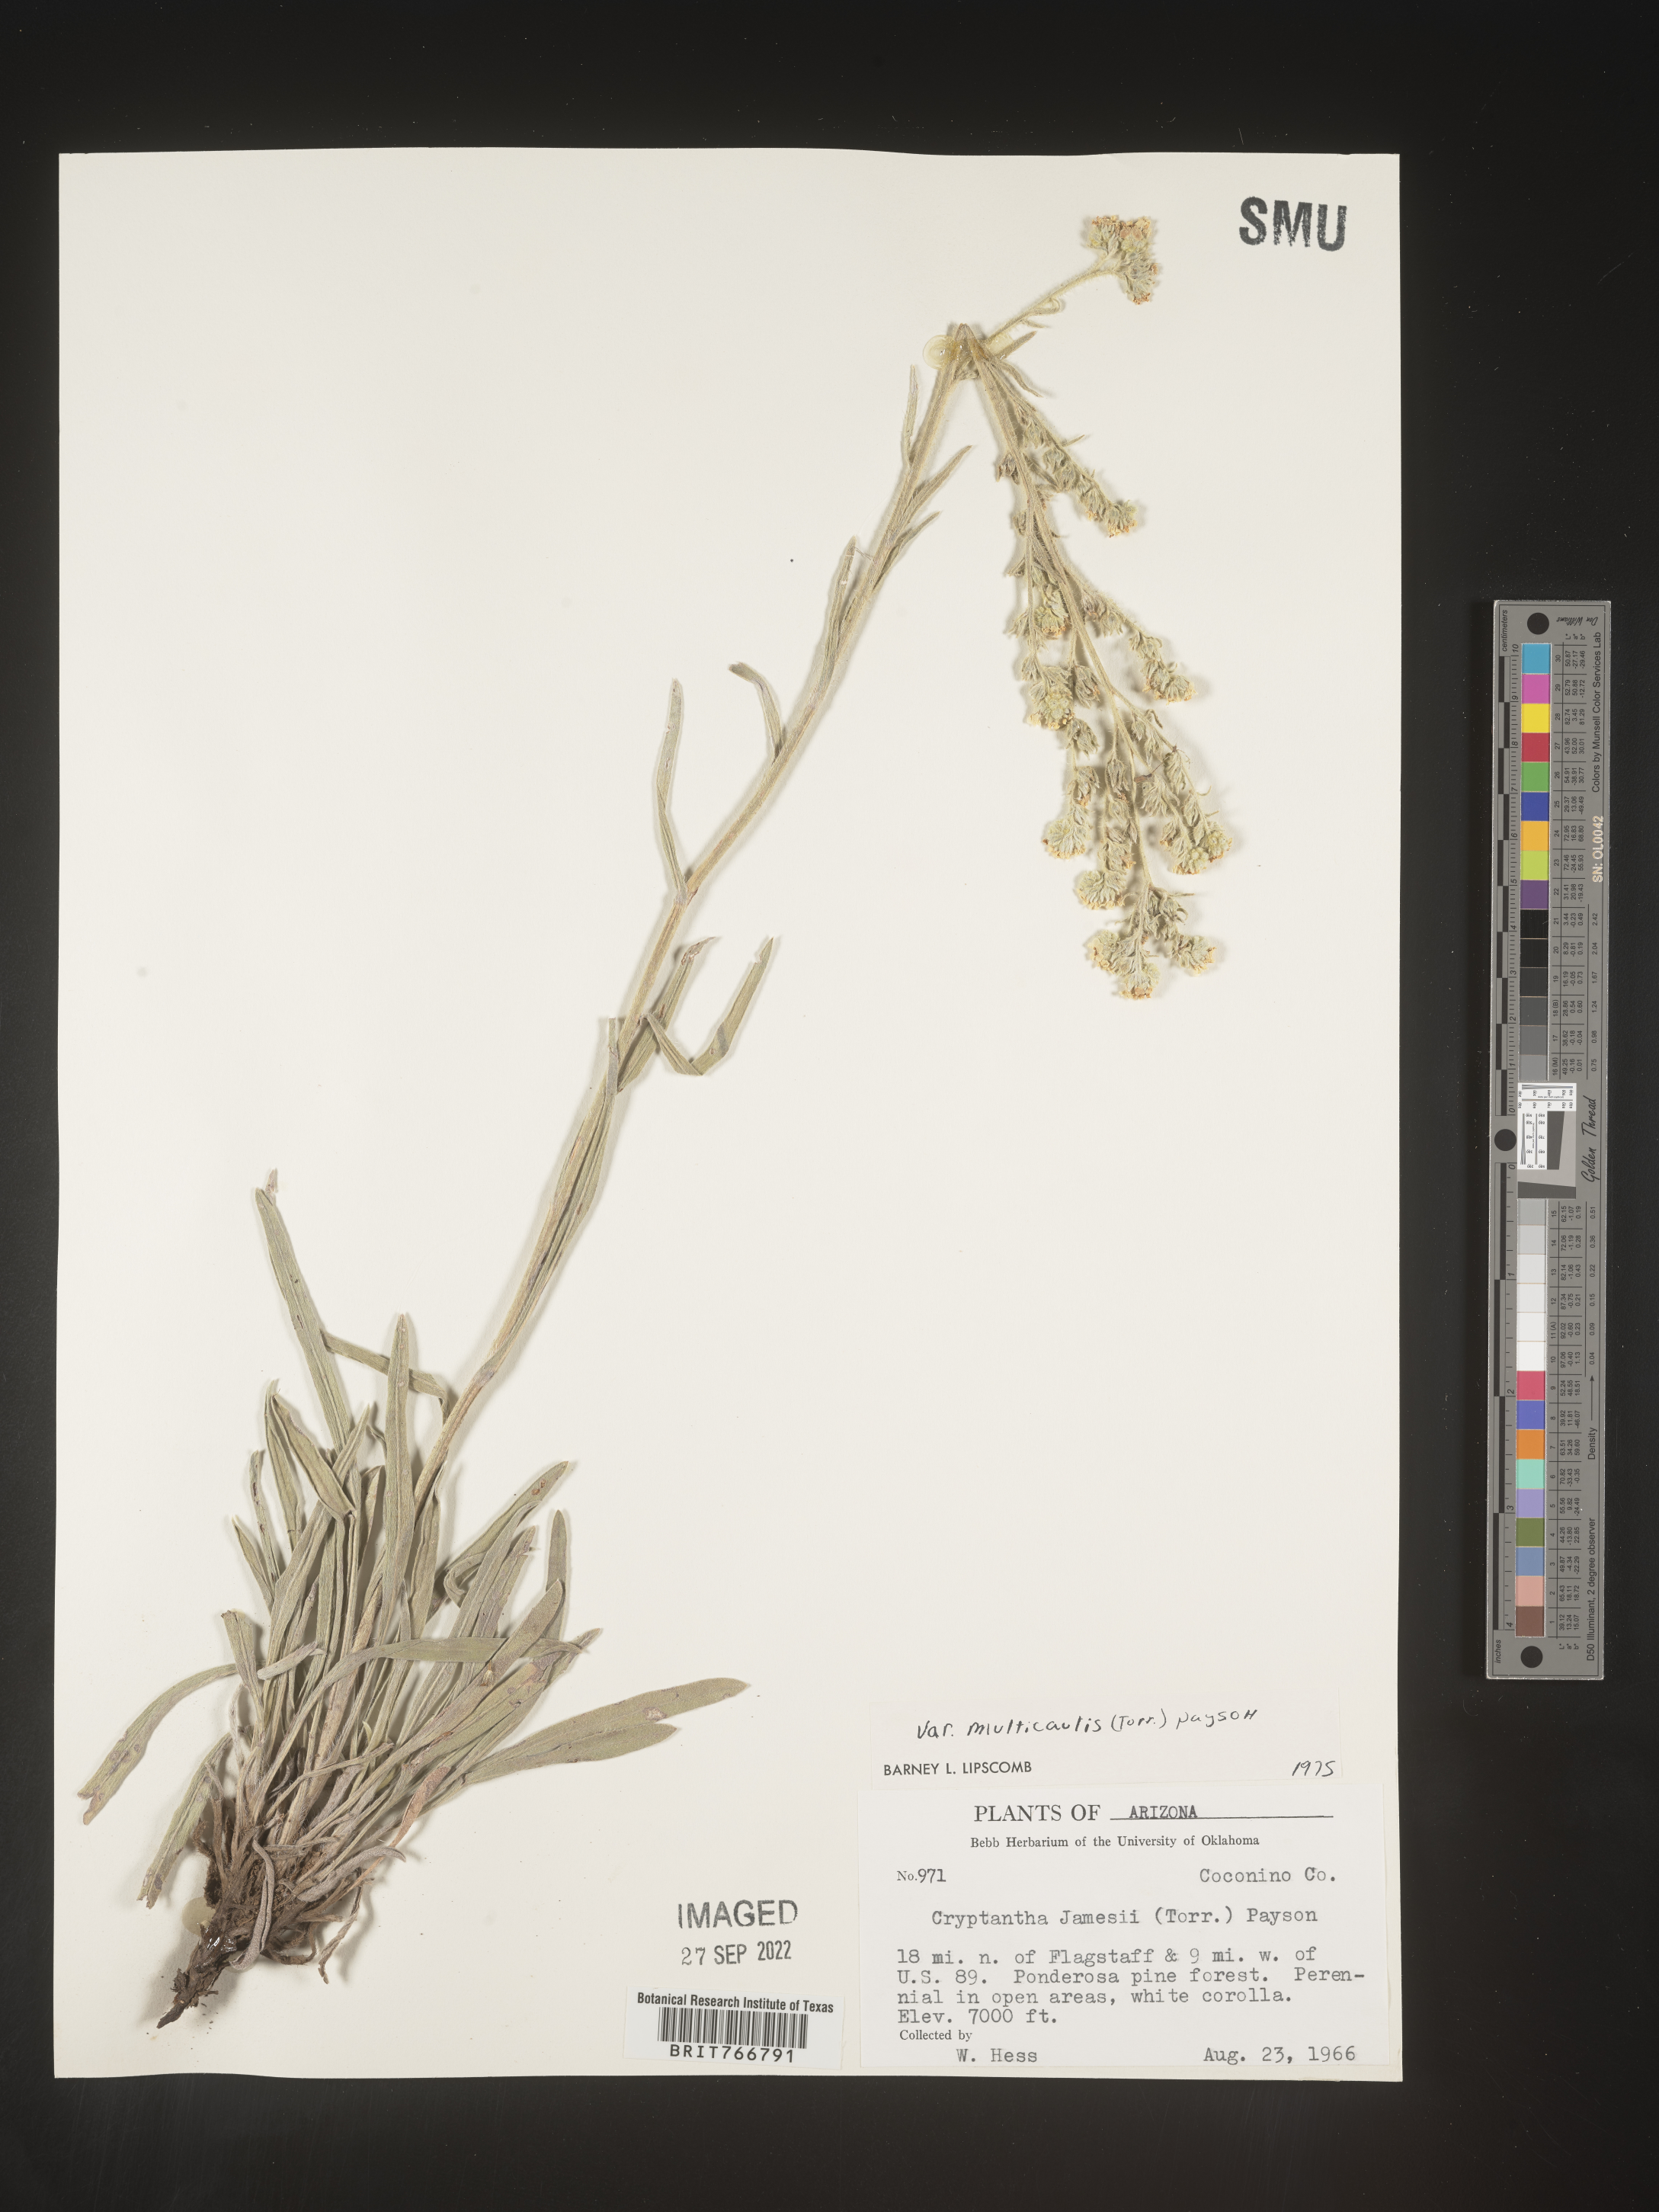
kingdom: Plantae
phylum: Tracheophyta
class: Magnoliopsida
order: Boraginales
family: Boraginaceae
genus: Oreocarya
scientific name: Oreocarya suffruticosa
